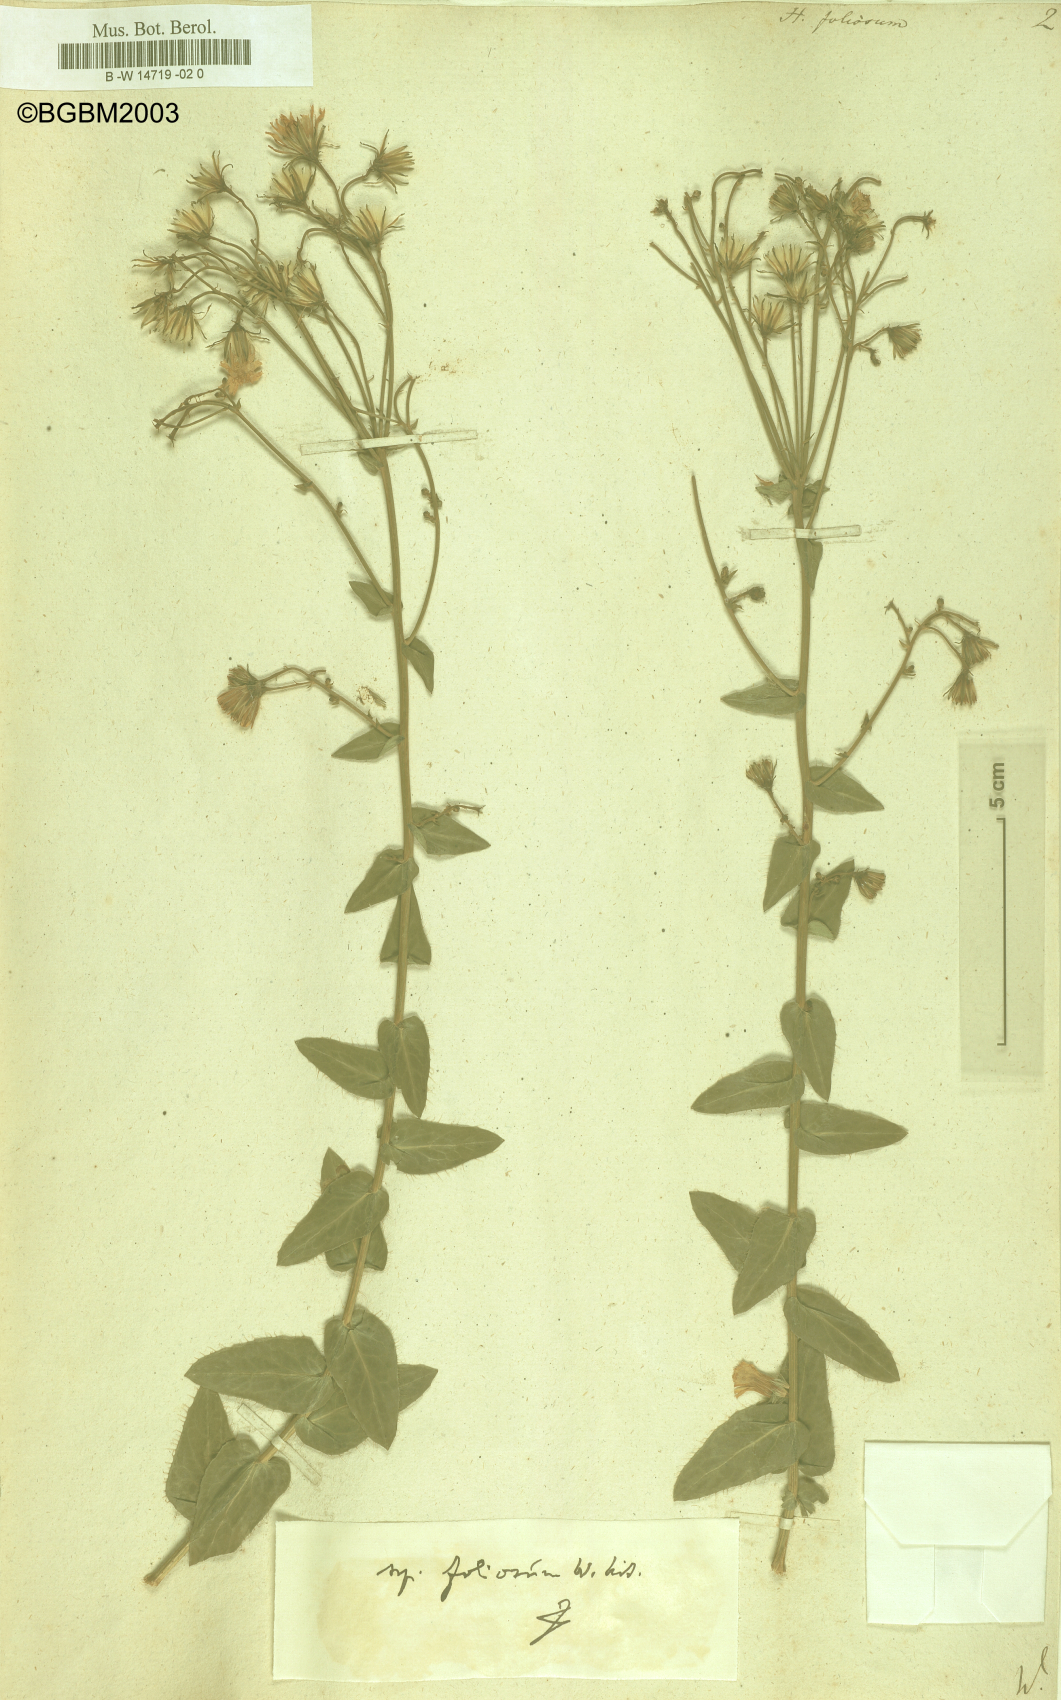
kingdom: Plantae
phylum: Tracheophyta
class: Magnoliopsida
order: Asterales
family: Asteraceae
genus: Hieracium
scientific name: Hieracium
